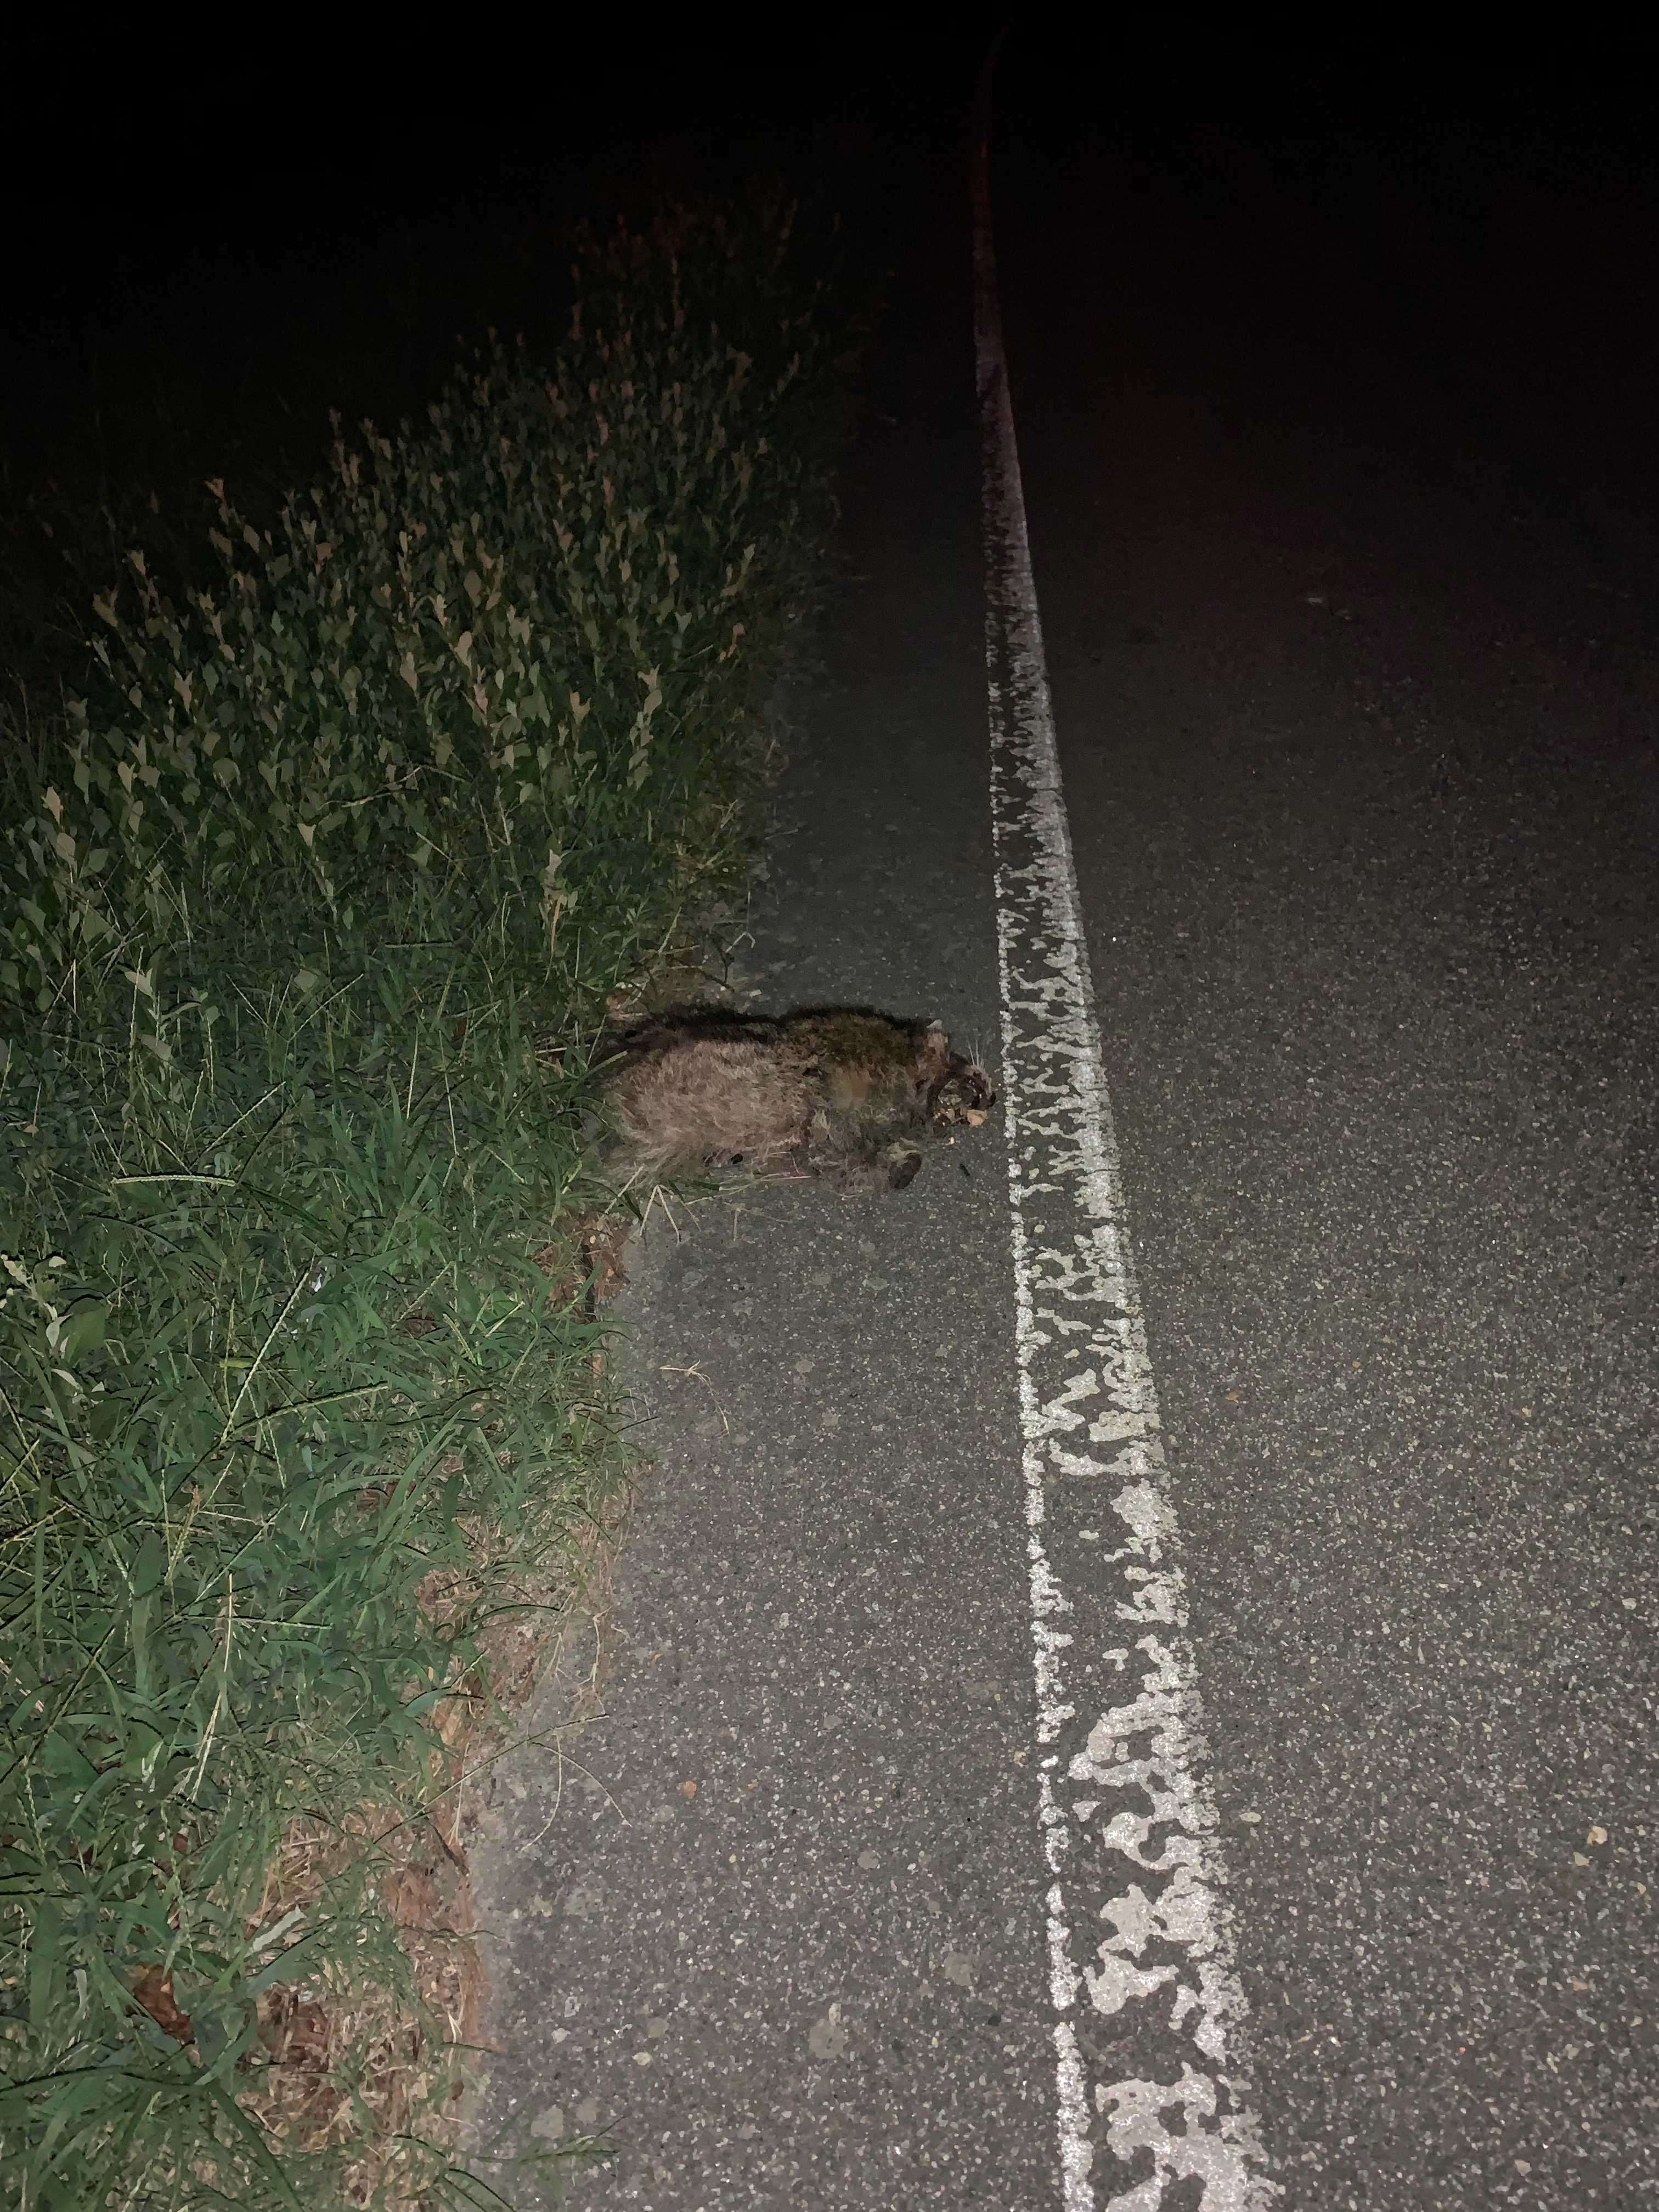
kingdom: Animalia
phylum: Chordata
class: Mammalia
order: Carnivora
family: Procyonidae
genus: Procyon
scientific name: Procyon lotor
